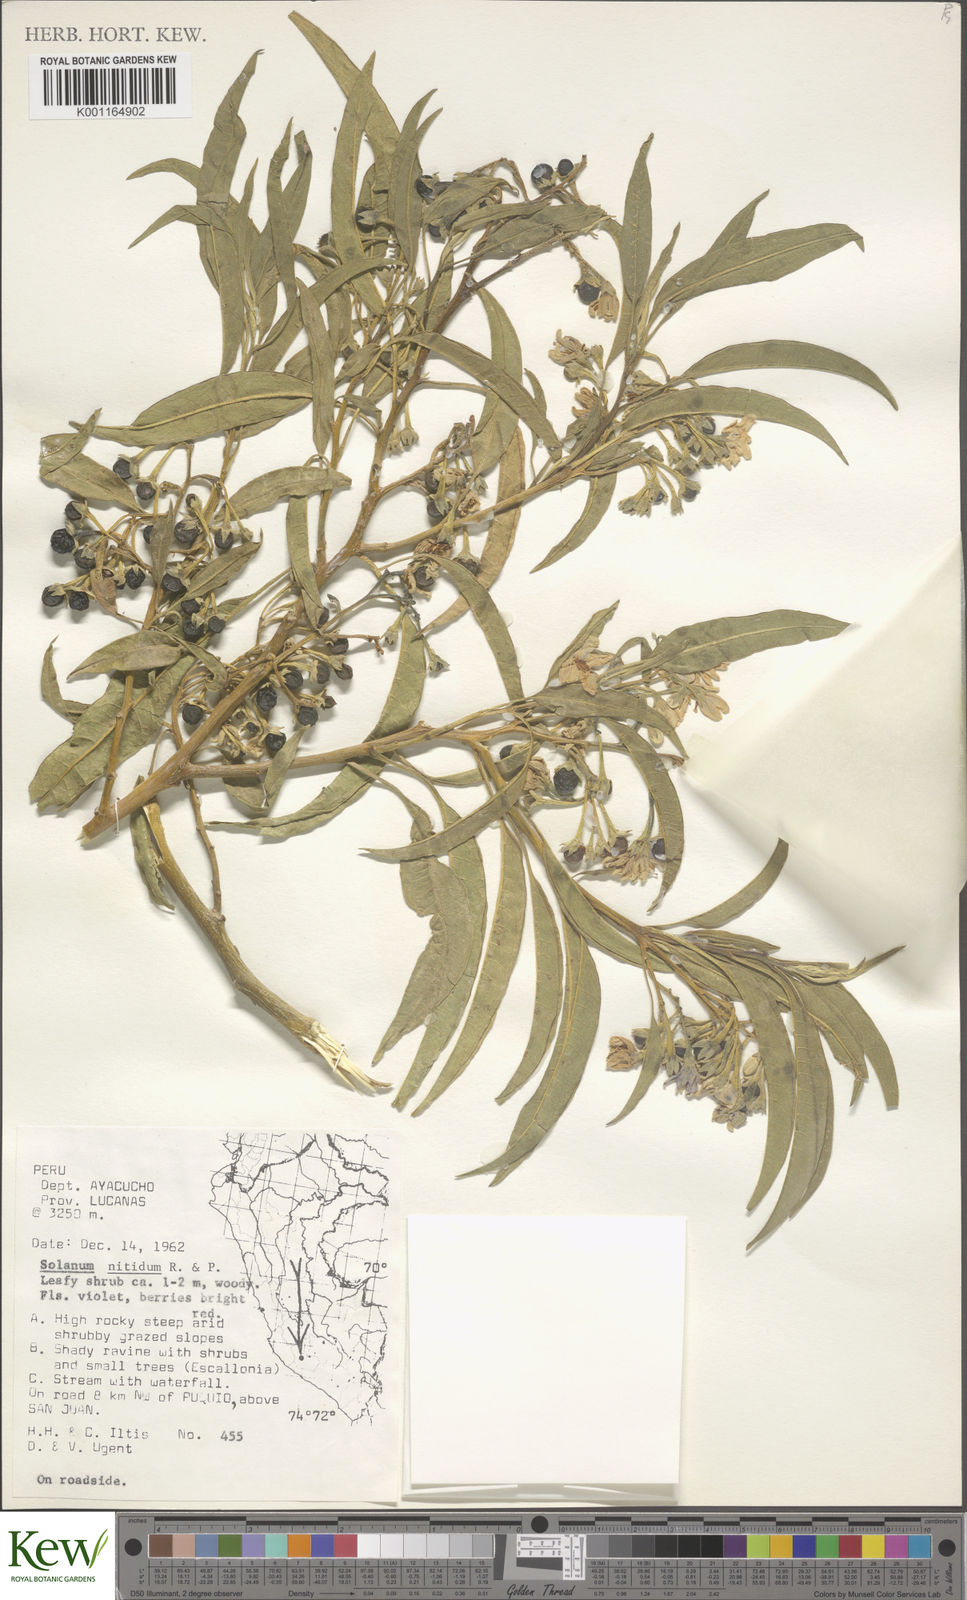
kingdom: Plantae
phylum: Tracheophyta
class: Magnoliopsida
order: Solanales
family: Solanaceae
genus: Solanum
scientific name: Solanum nitidum
